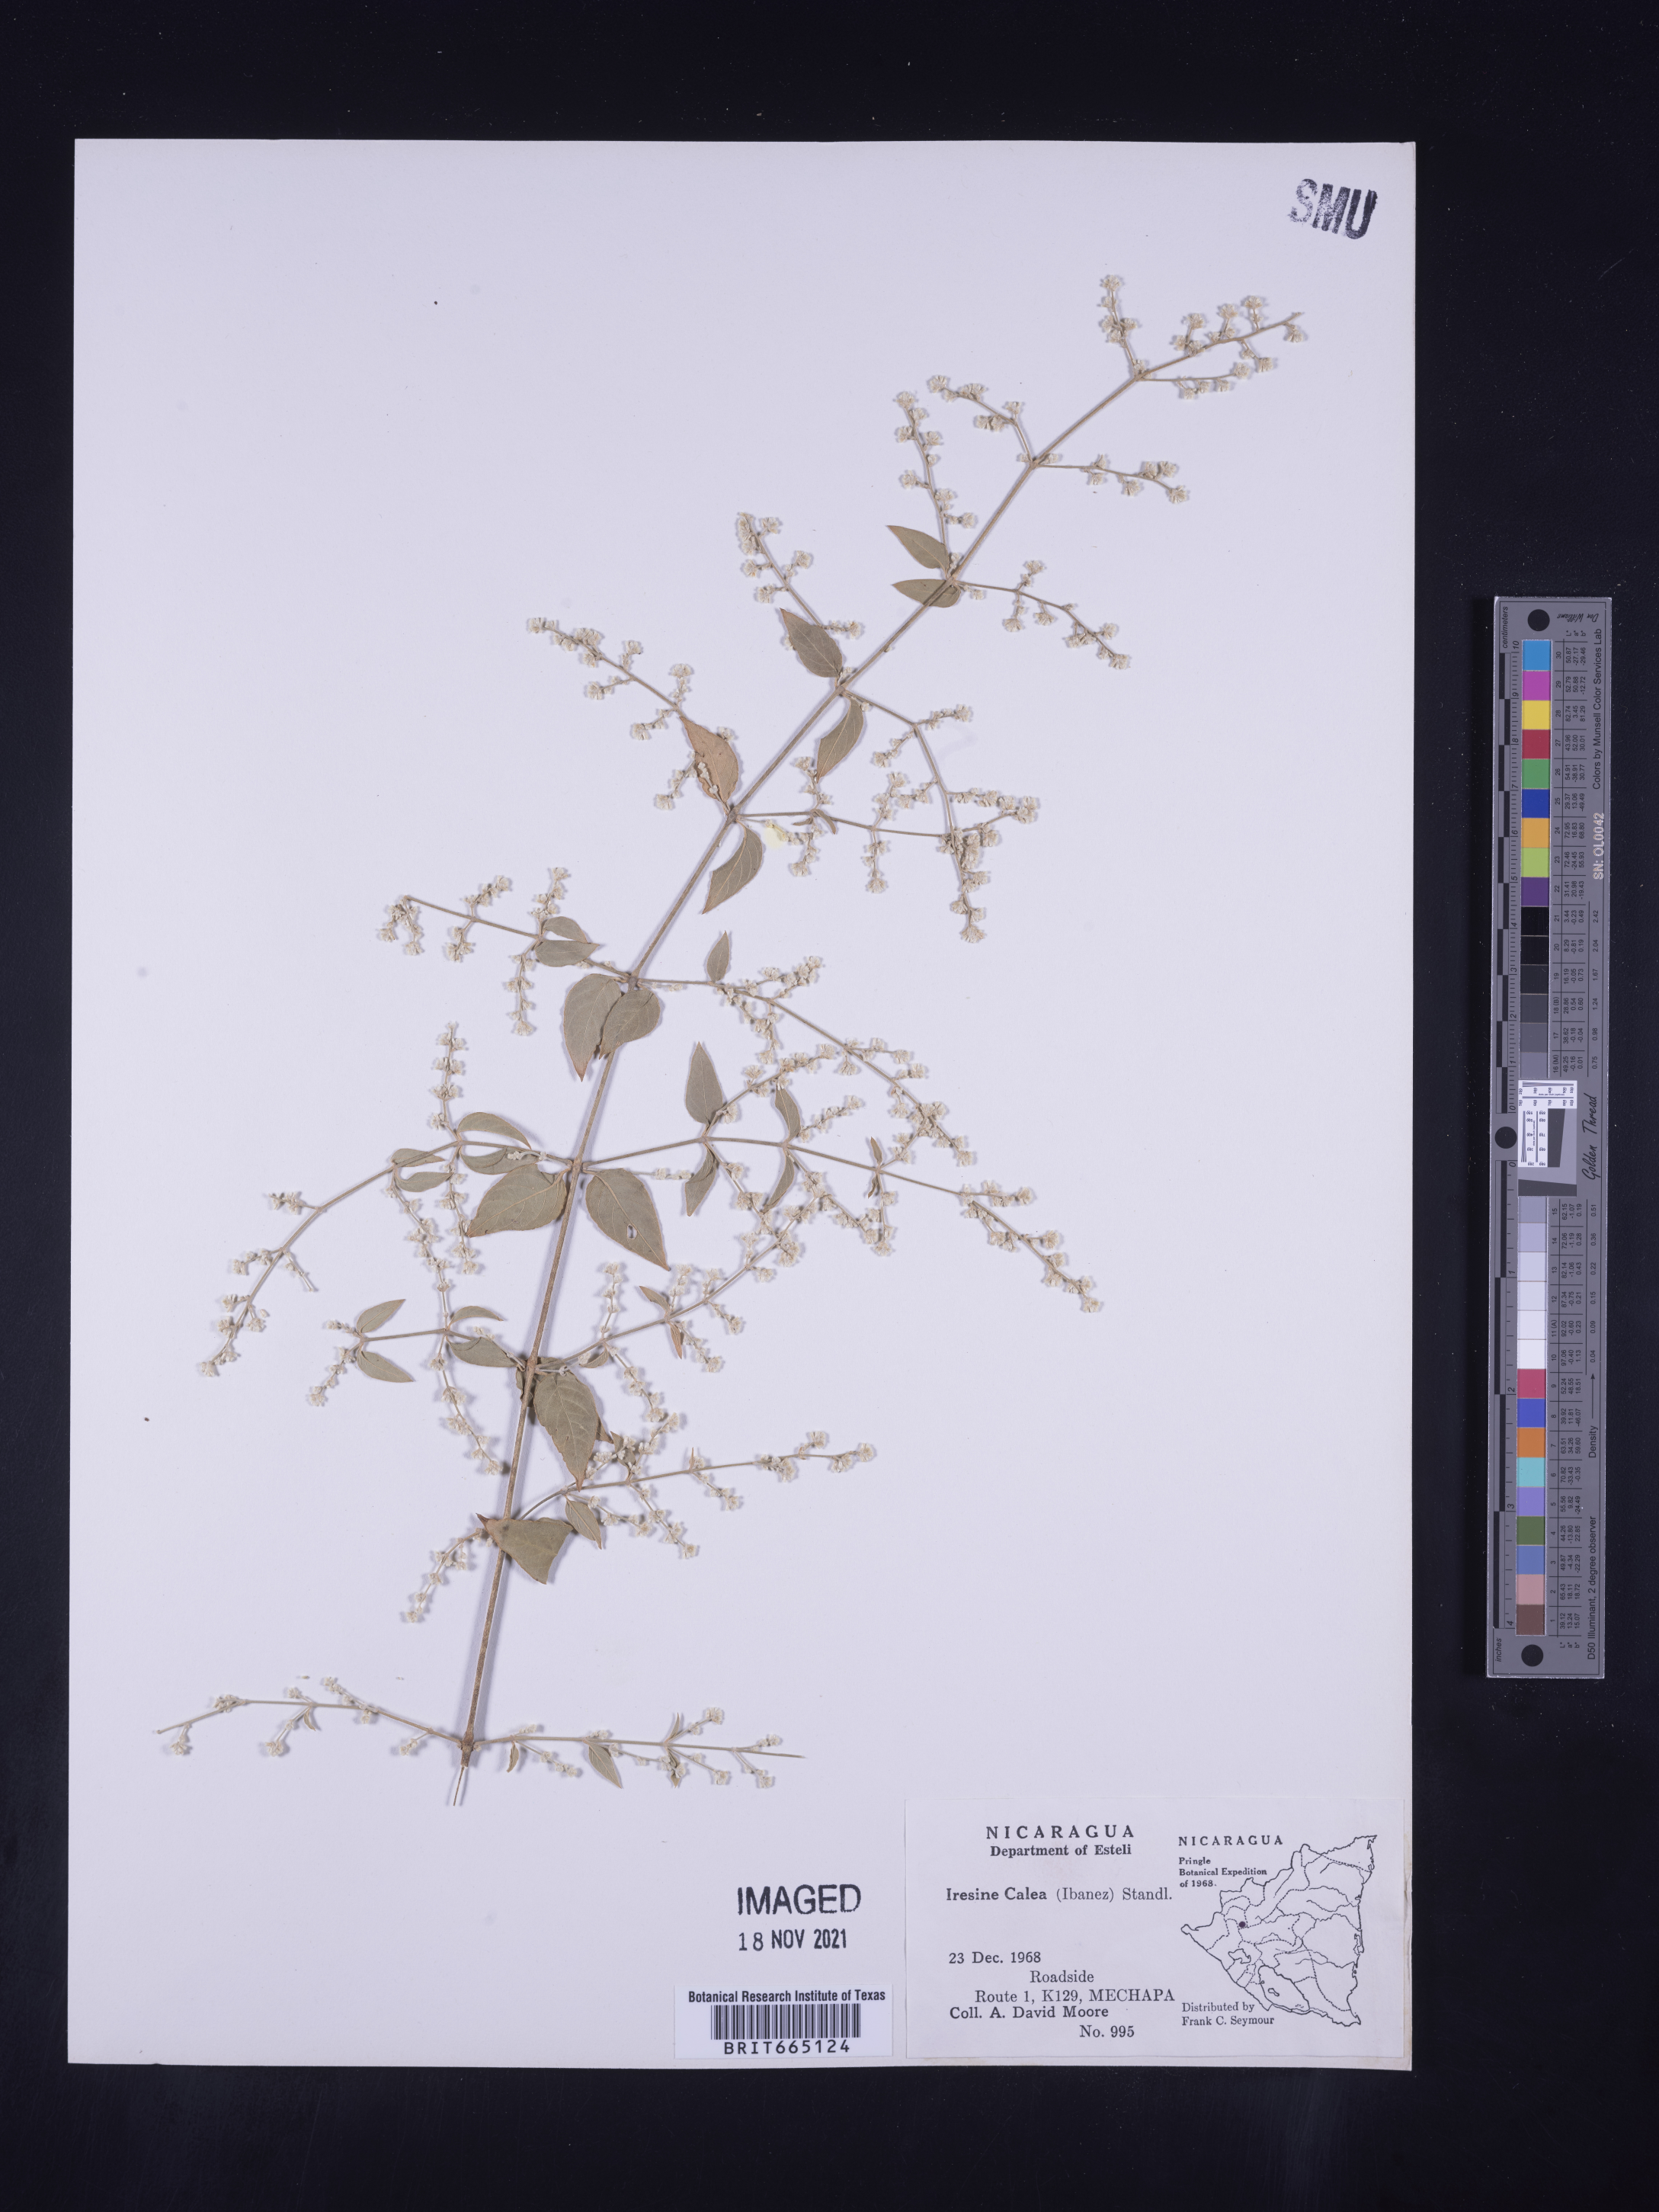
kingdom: Plantae
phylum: Tracheophyta
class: Magnoliopsida
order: Caryophyllales
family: Amaranthaceae
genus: Iresine
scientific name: Iresine
